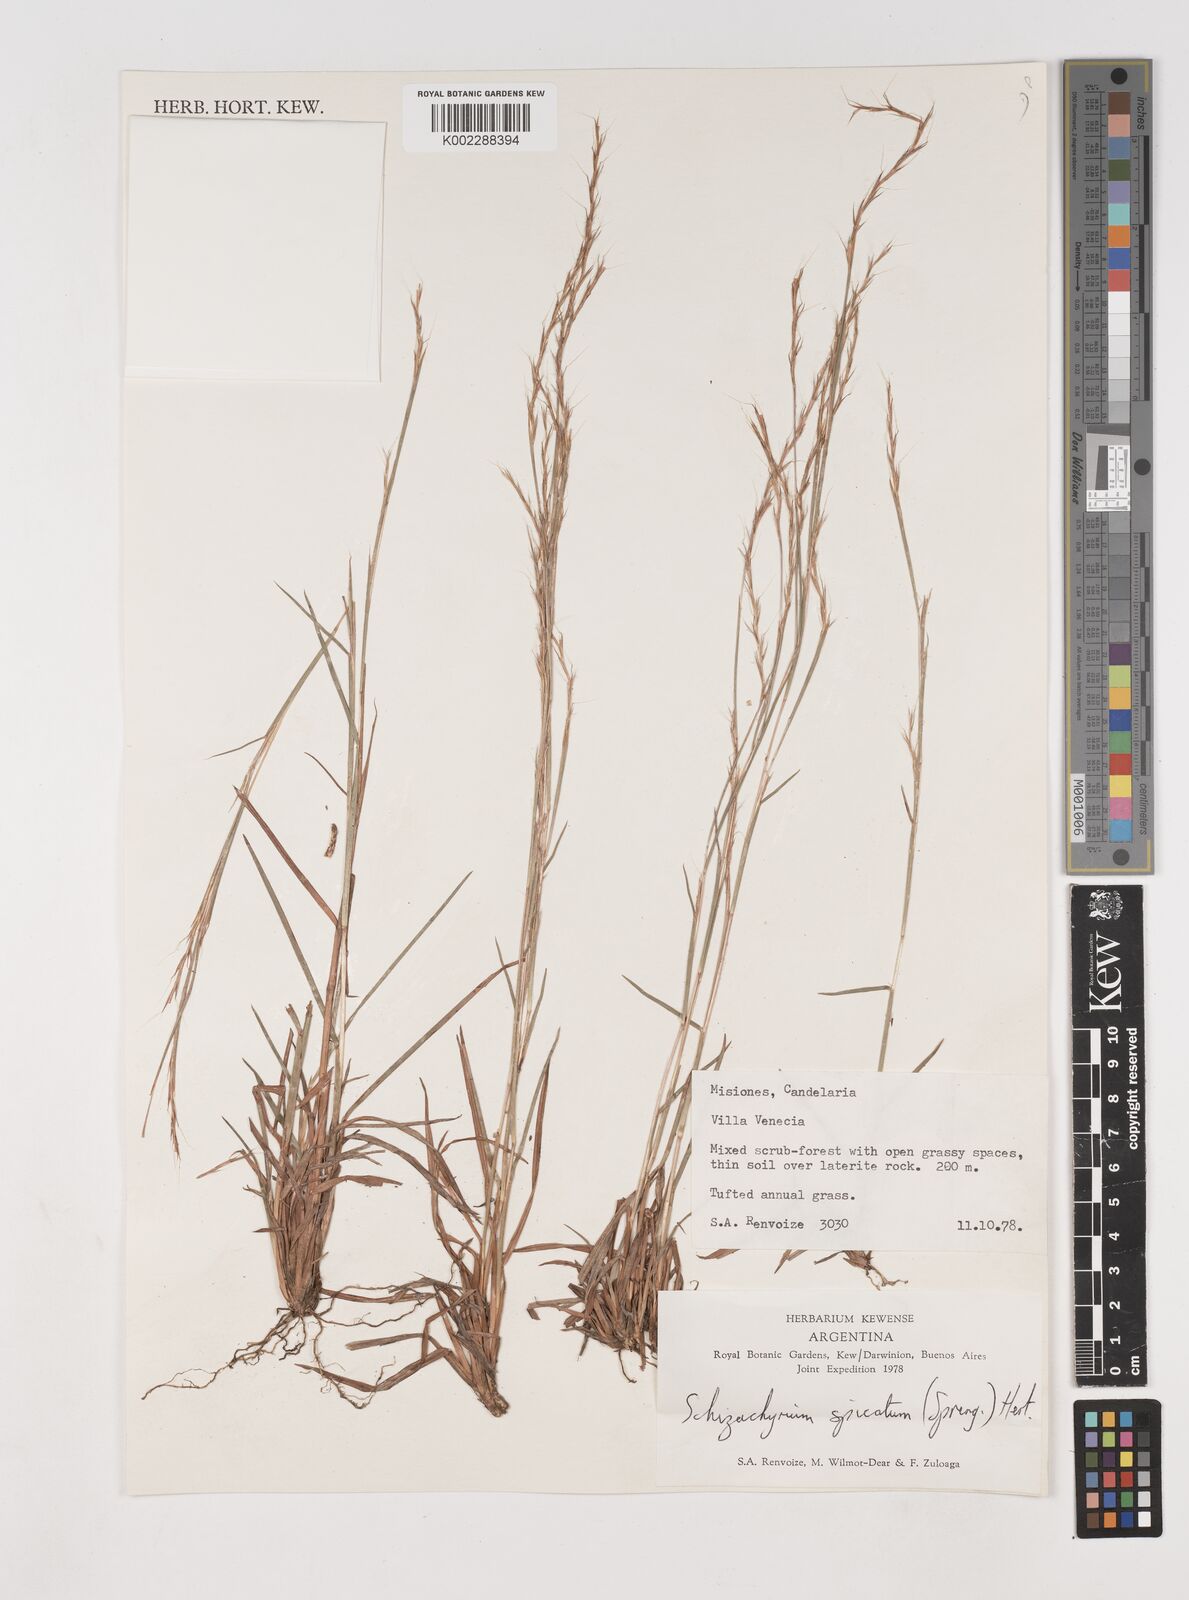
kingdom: Plantae
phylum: Tracheophyta
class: Liliopsida
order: Poales
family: Poaceae
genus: Schizachyrium
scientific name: Schizachyrium spicatum
